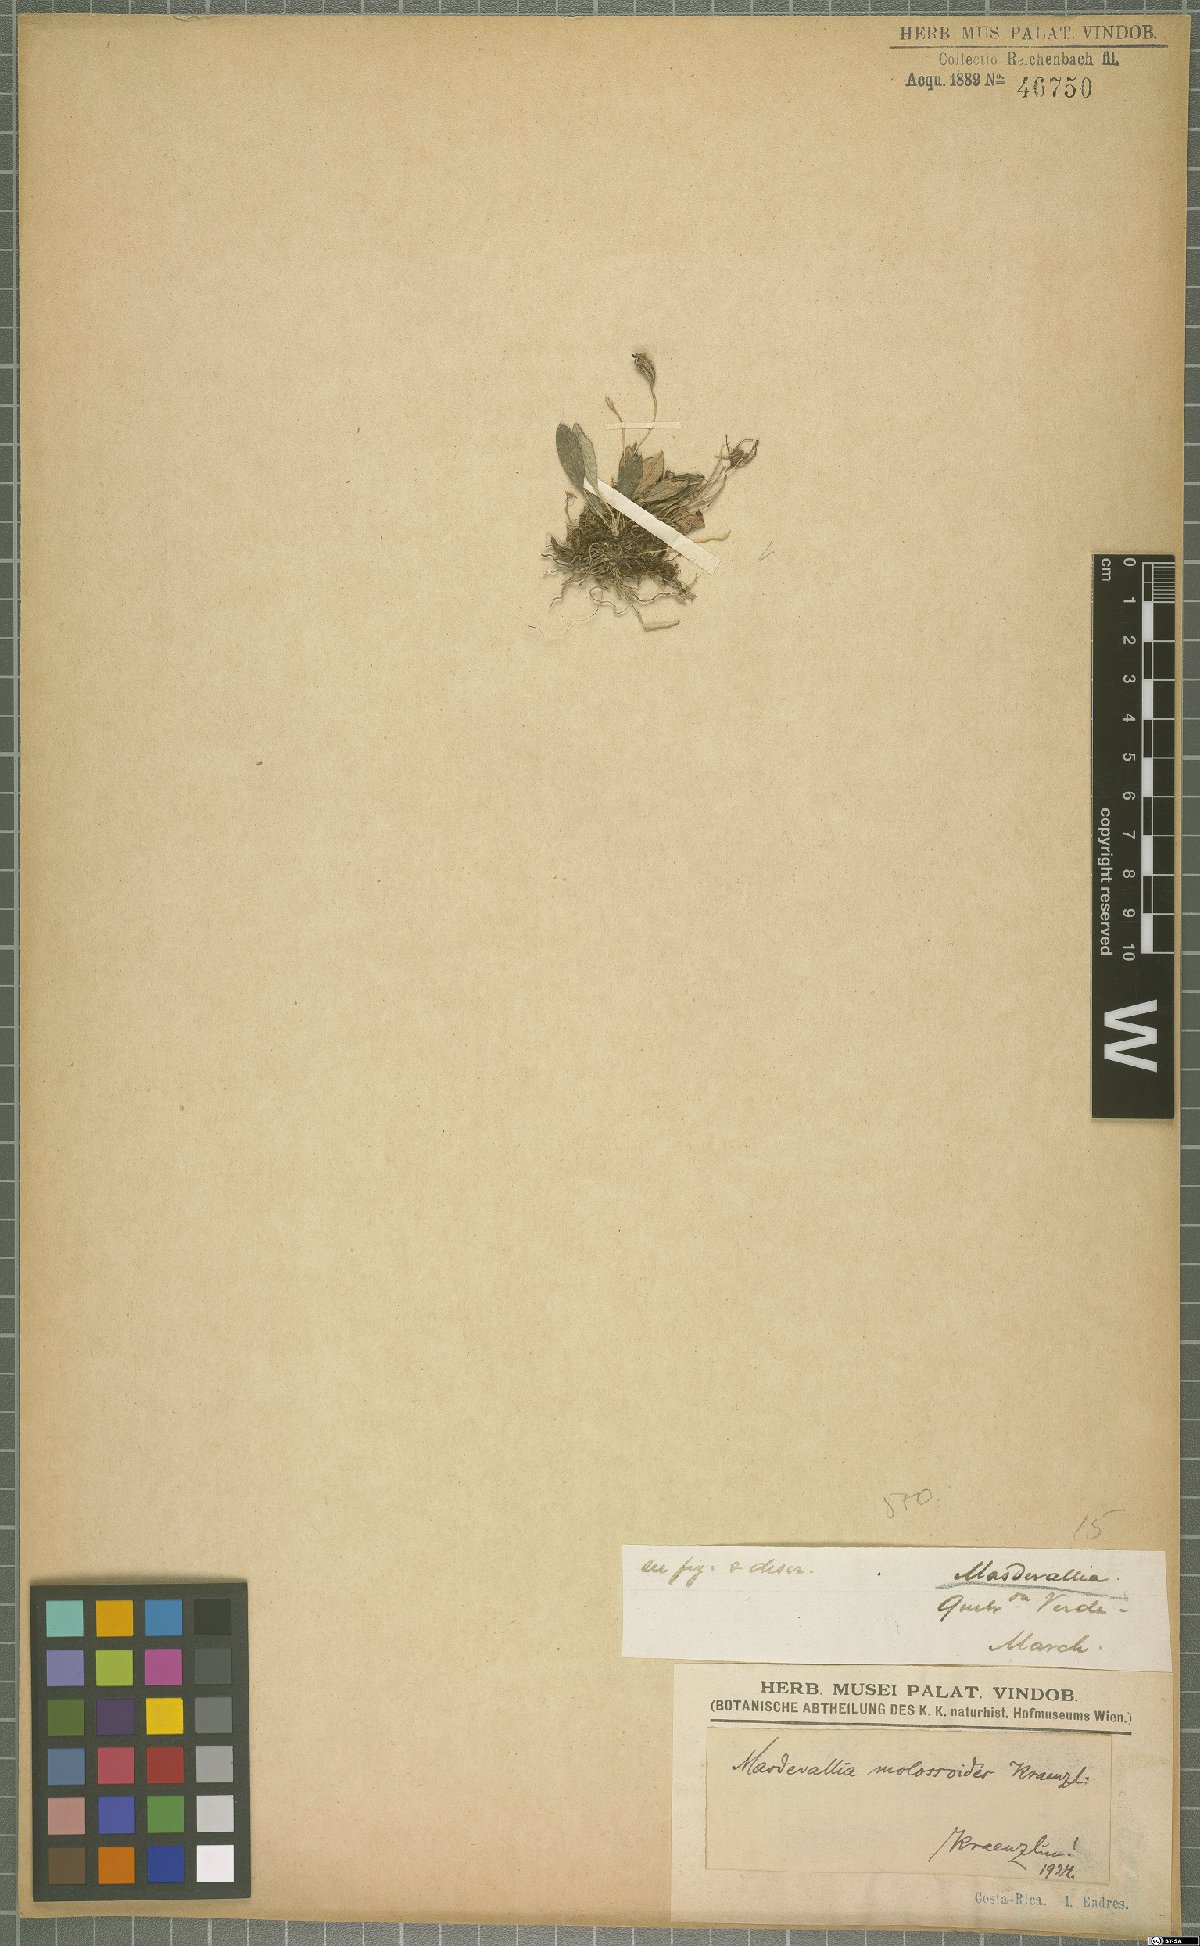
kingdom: Plantae
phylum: Tracheophyta
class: Liliopsida
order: Asparagales
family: Orchidaceae
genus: Masdevallia
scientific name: Masdevallia molossoides
